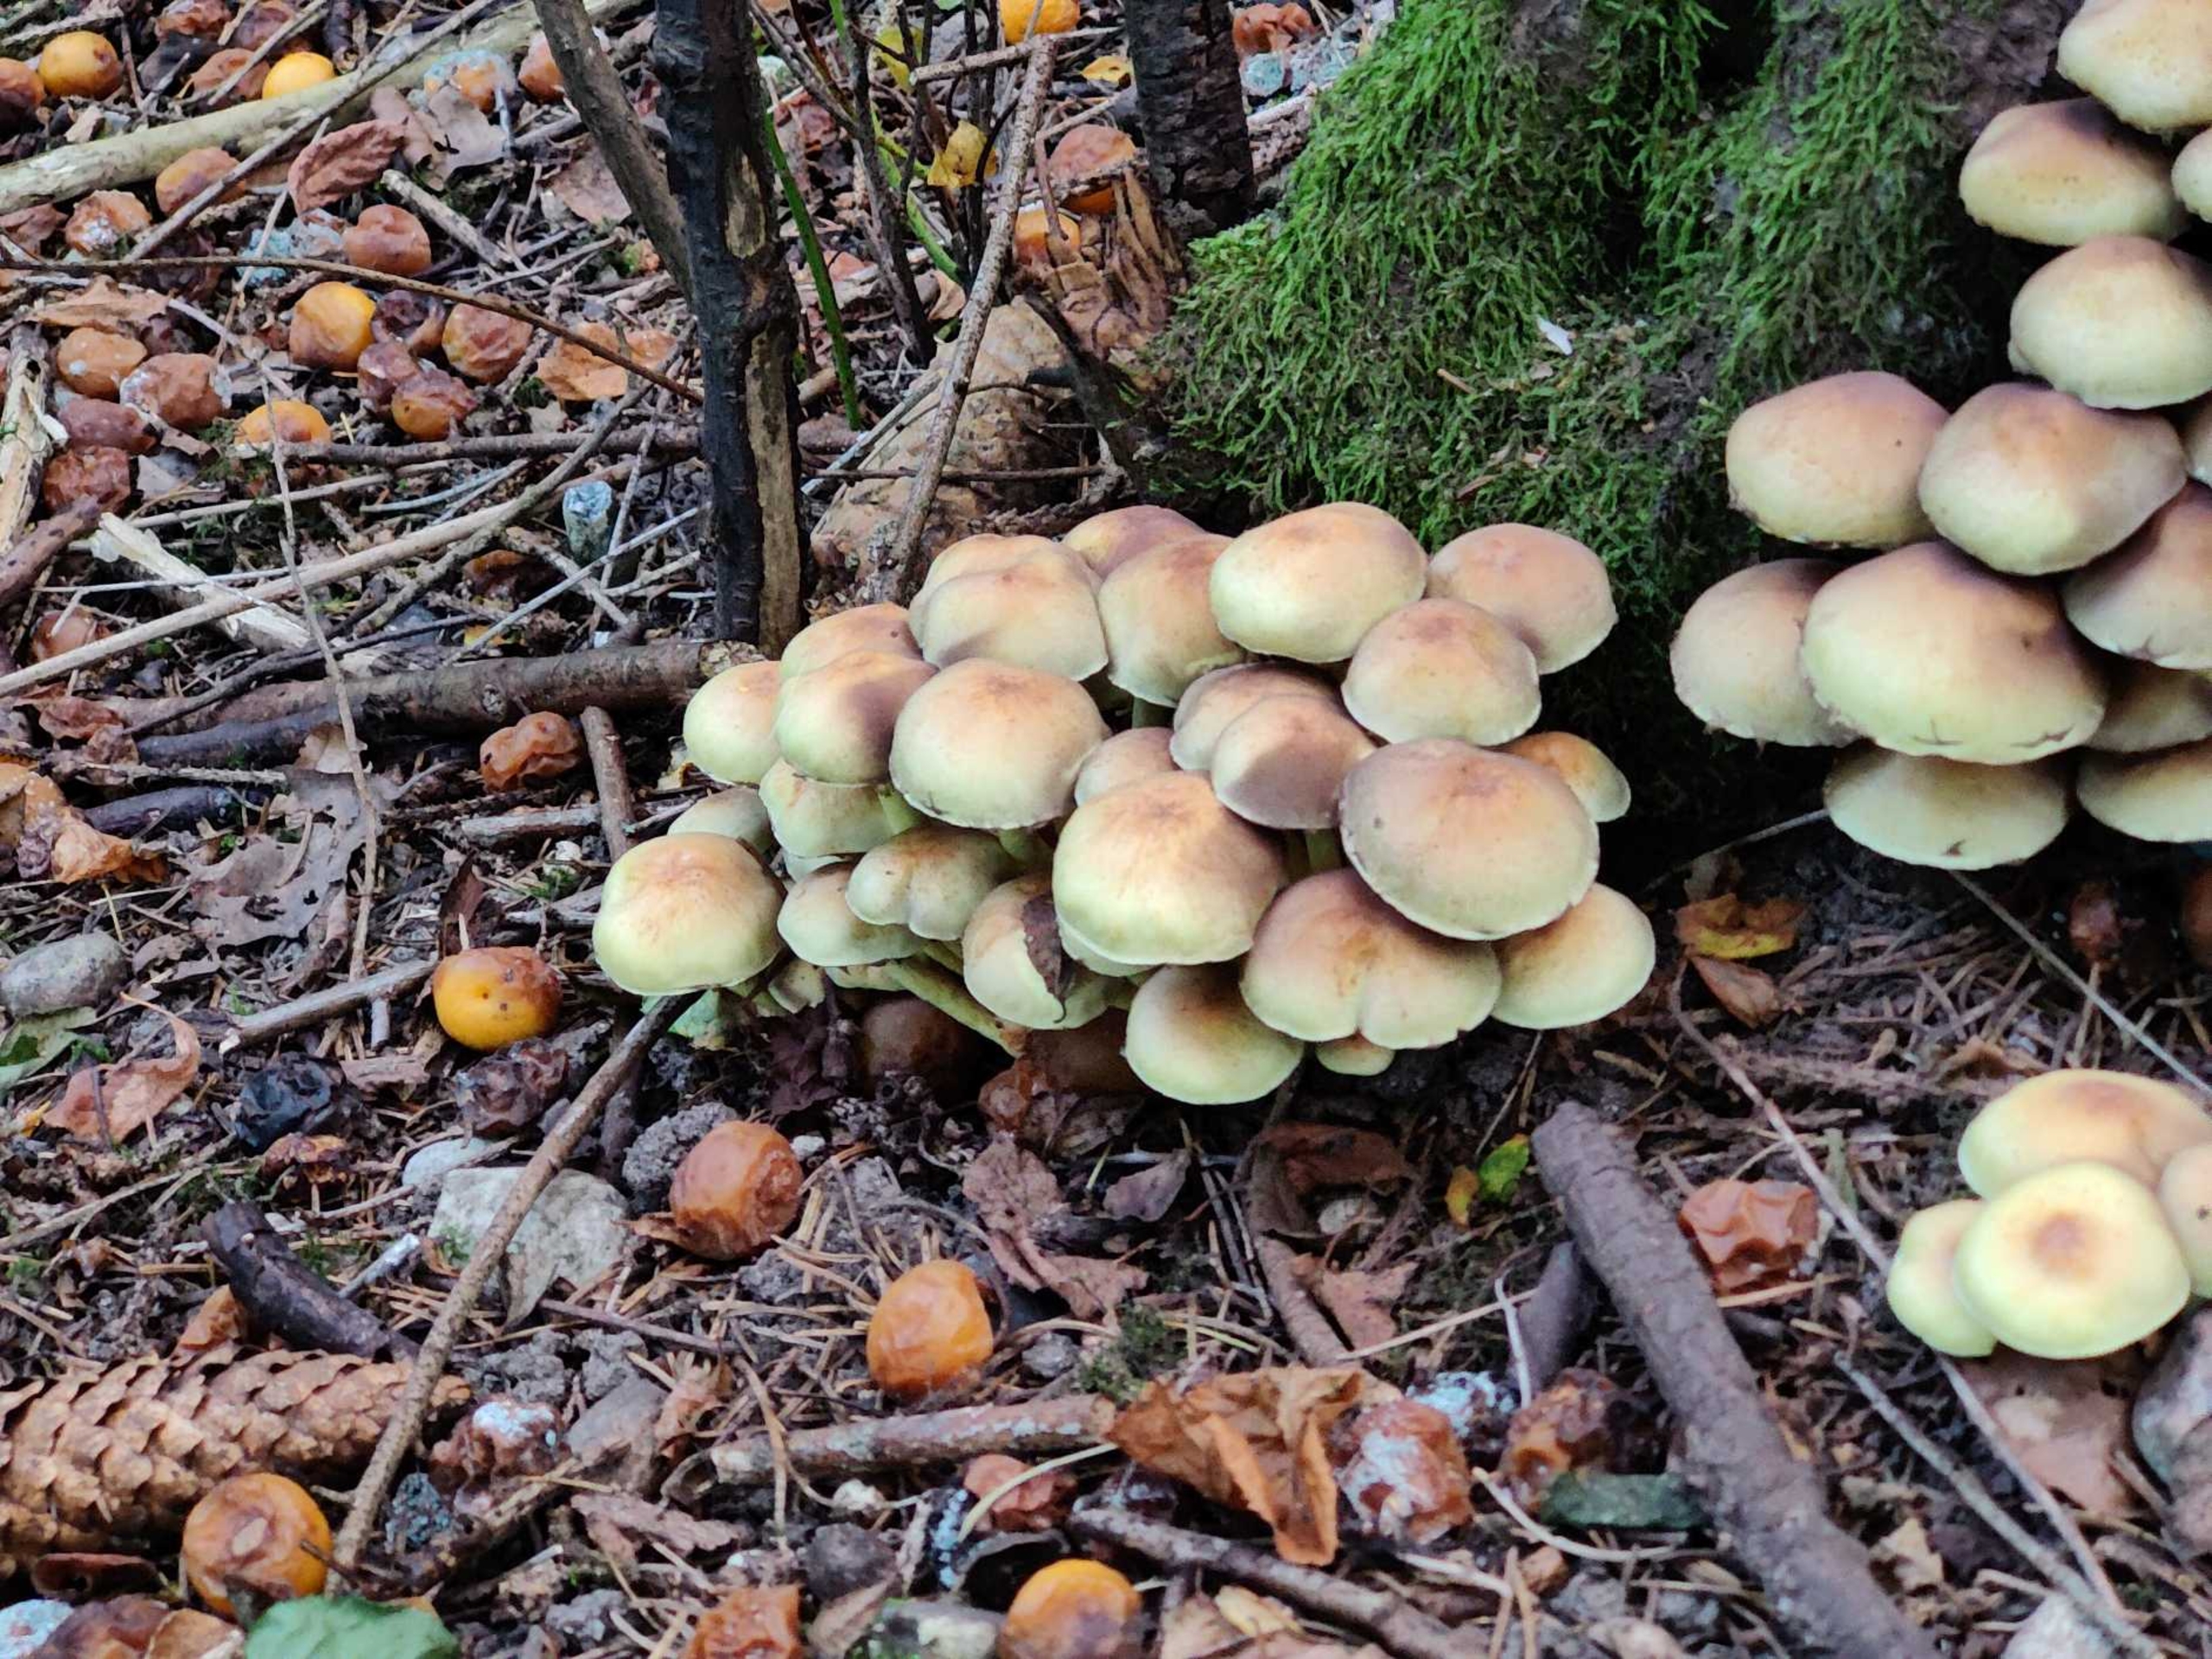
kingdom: Fungi
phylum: Basidiomycota
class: Agaricomycetes
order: Agaricales
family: Strophariaceae
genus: Hypholoma
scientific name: Hypholoma fasciculare
